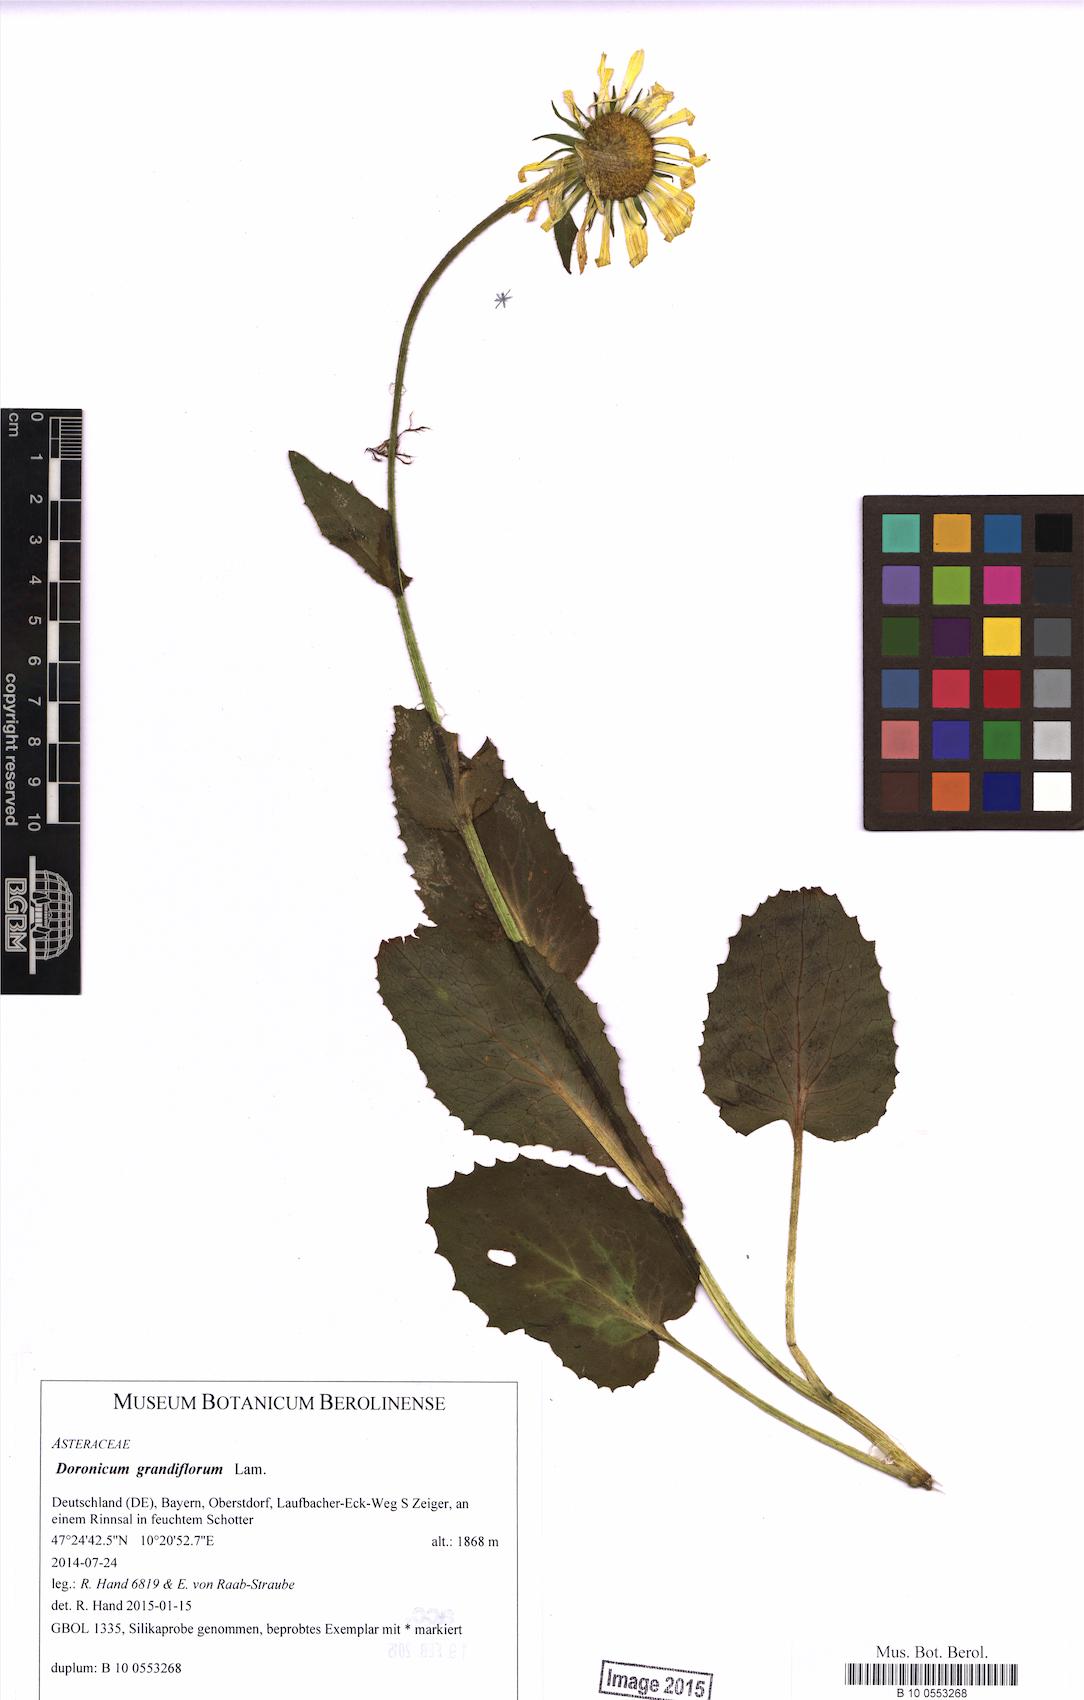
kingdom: Plantae
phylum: Tracheophyta
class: Magnoliopsida
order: Asterales
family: Asteraceae
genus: Doronicum
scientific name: Doronicum grandiflorum
